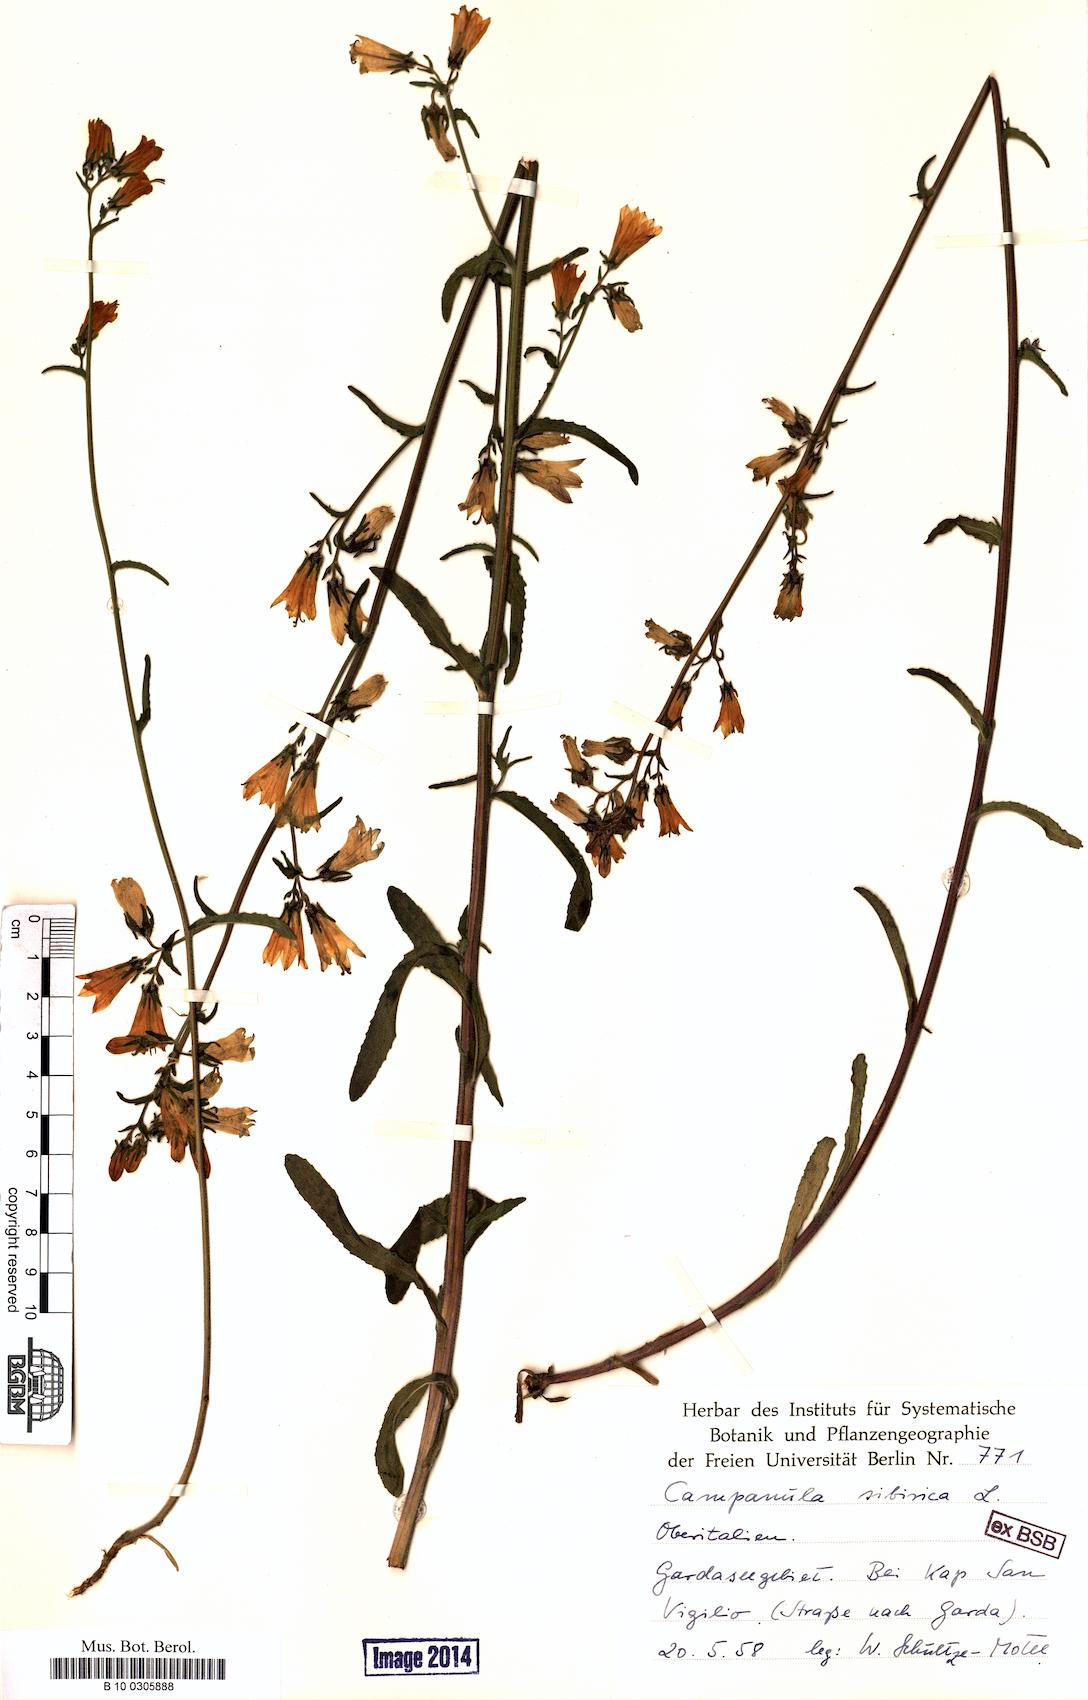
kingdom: Plantae
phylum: Tracheophyta
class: Magnoliopsida
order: Asterales
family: Campanulaceae
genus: Campanula
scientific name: Campanula sibirica
